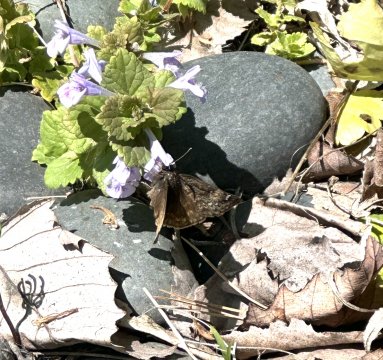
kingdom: Animalia
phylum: Arthropoda
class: Insecta
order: Lepidoptera
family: Hesperiidae
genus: Erynnis
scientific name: Erynnis
